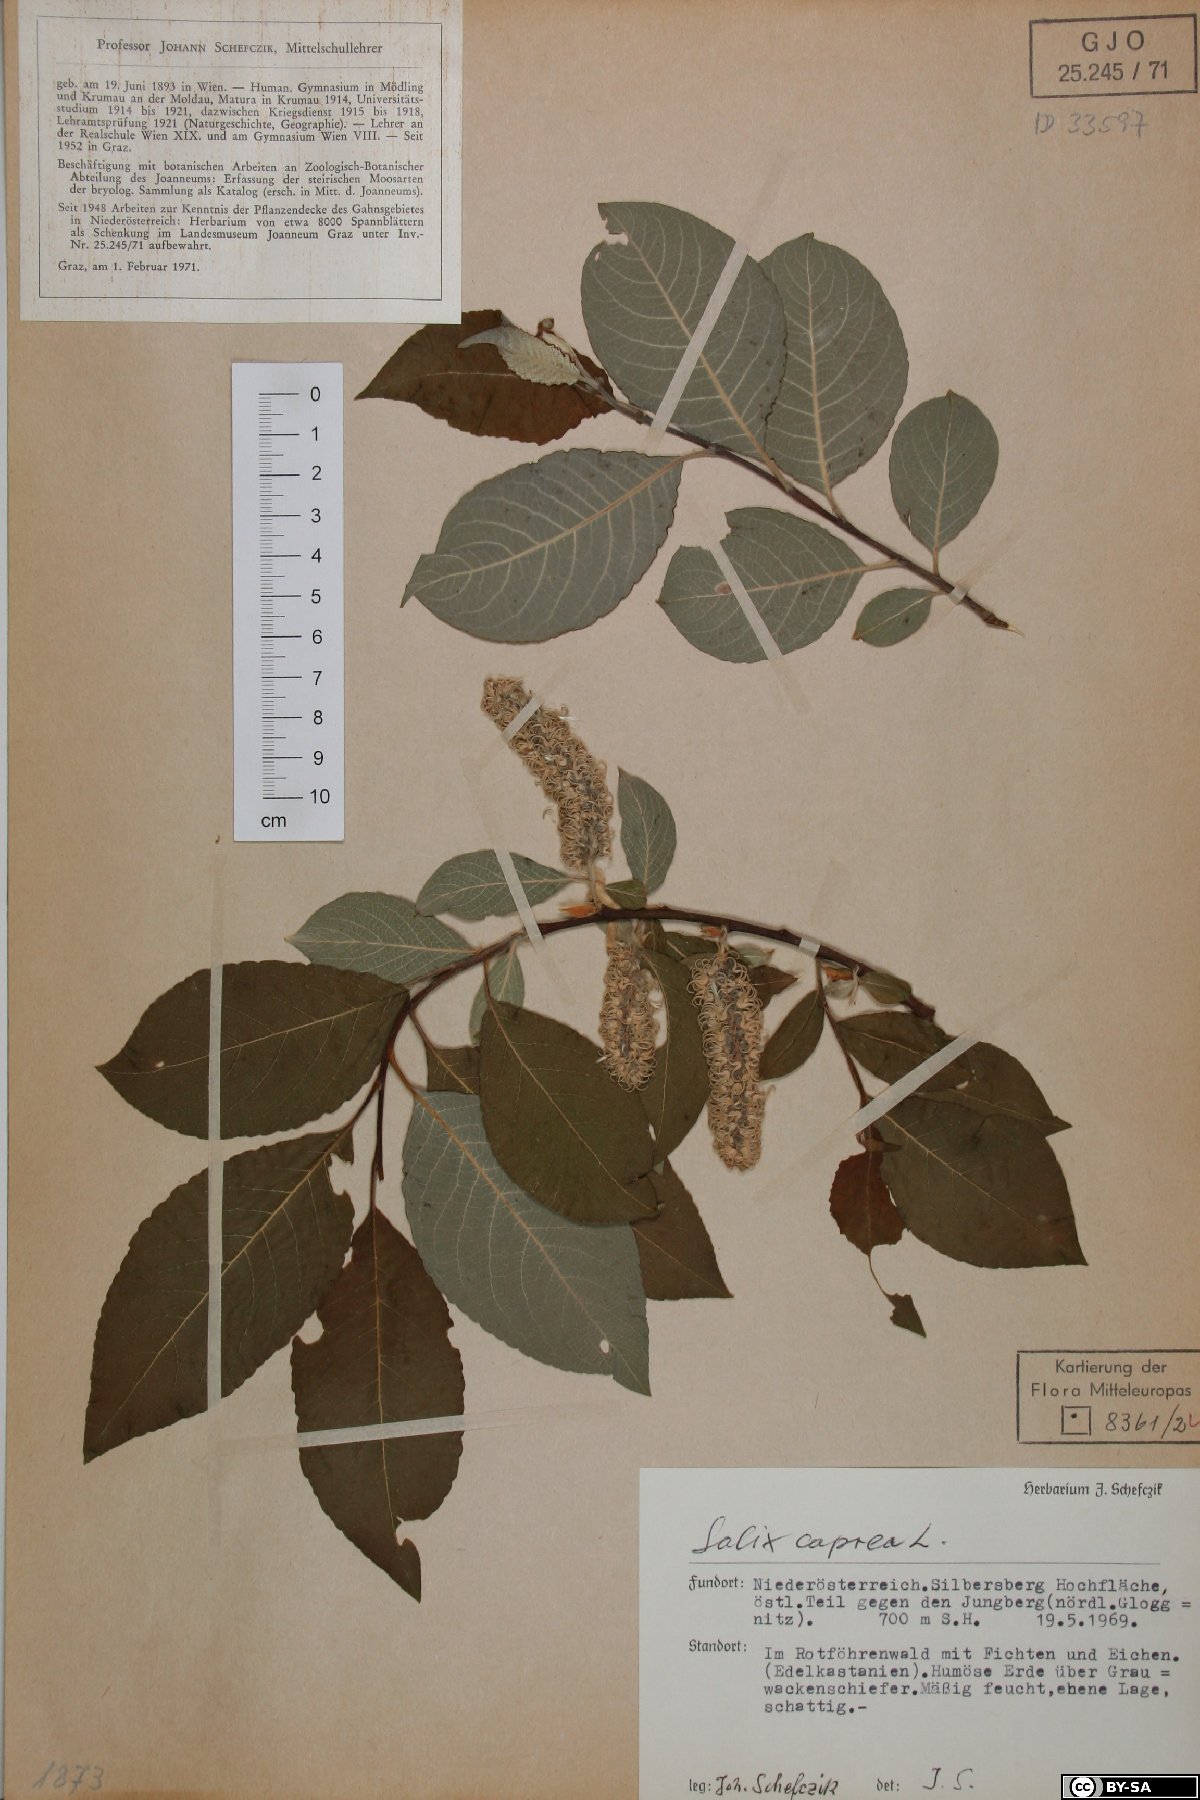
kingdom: Plantae
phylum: Tracheophyta
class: Magnoliopsida
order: Malpighiales
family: Salicaceae
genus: Salix
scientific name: Salix caprea
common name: Goat willow
